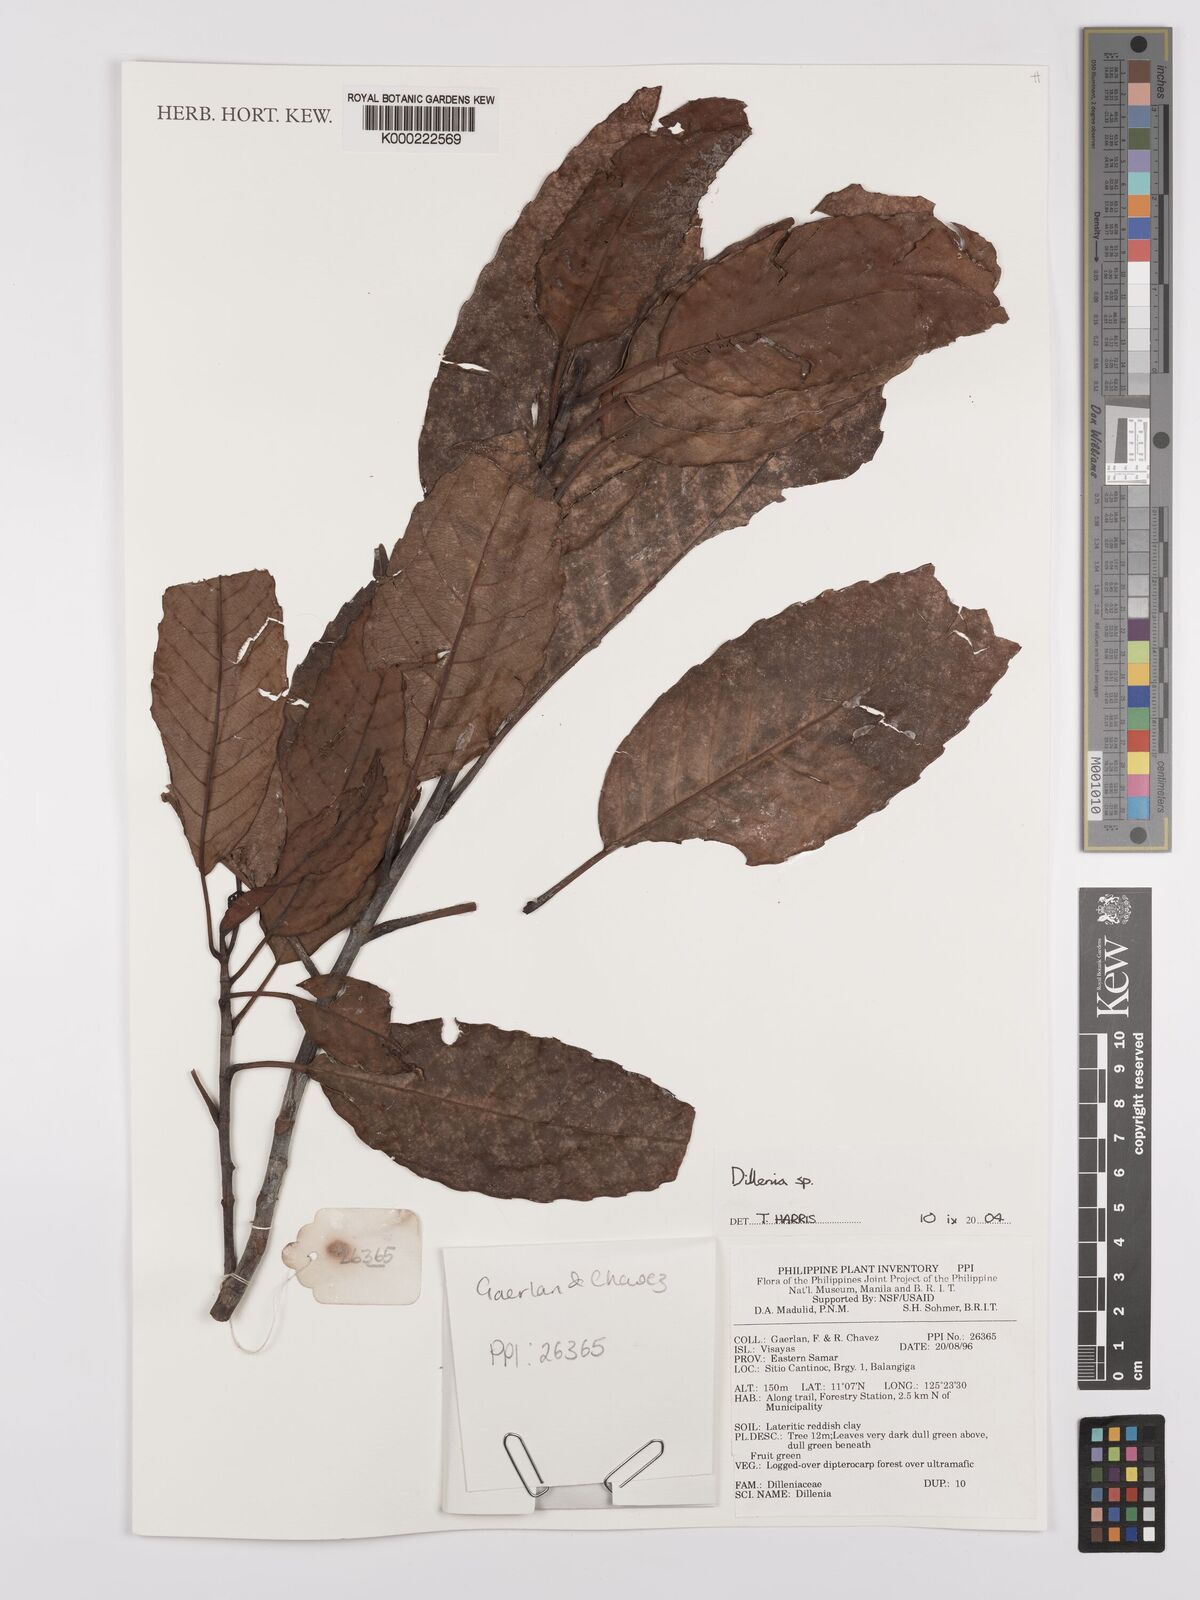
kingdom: Plantae
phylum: Tracheophyta
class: Magnoliopsida
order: Dilleniales
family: Dilleniaceae
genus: Dillenia
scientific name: Dillenia
